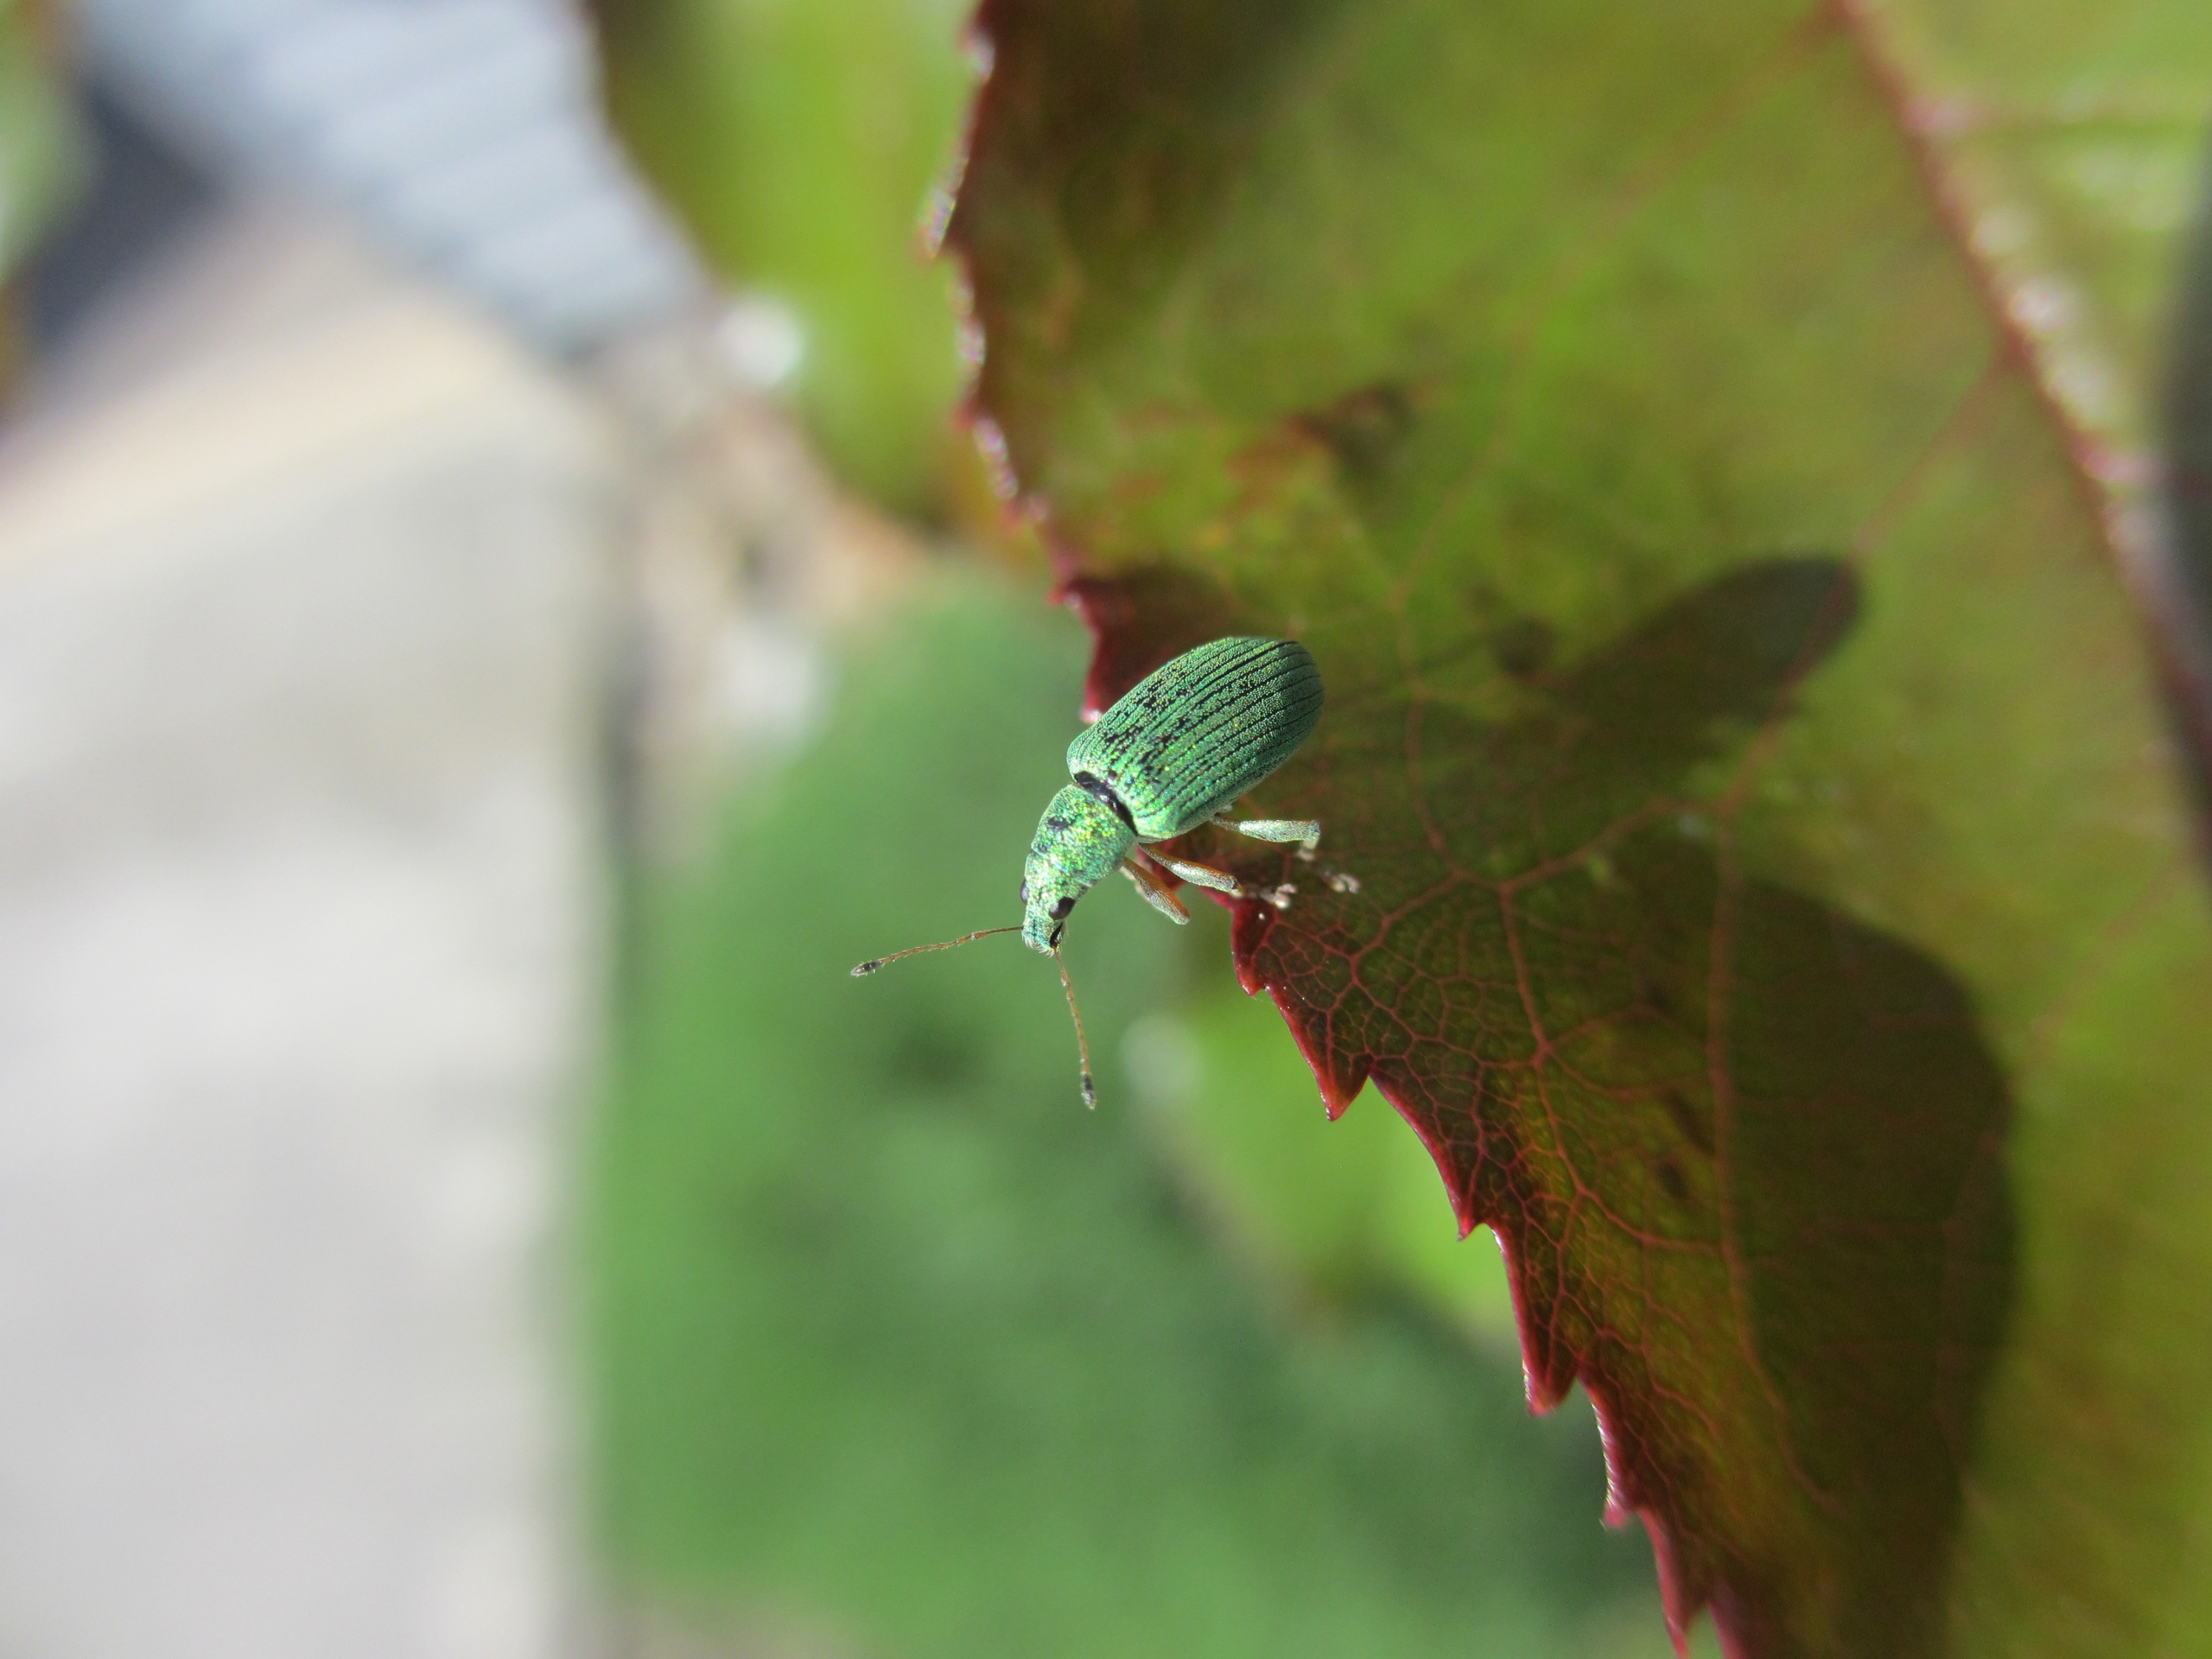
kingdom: Animalia
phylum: Arthropoda
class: Insecta
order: Coleoptera
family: Curculionidae
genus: Polydrusus
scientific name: Polydrusus formosus
